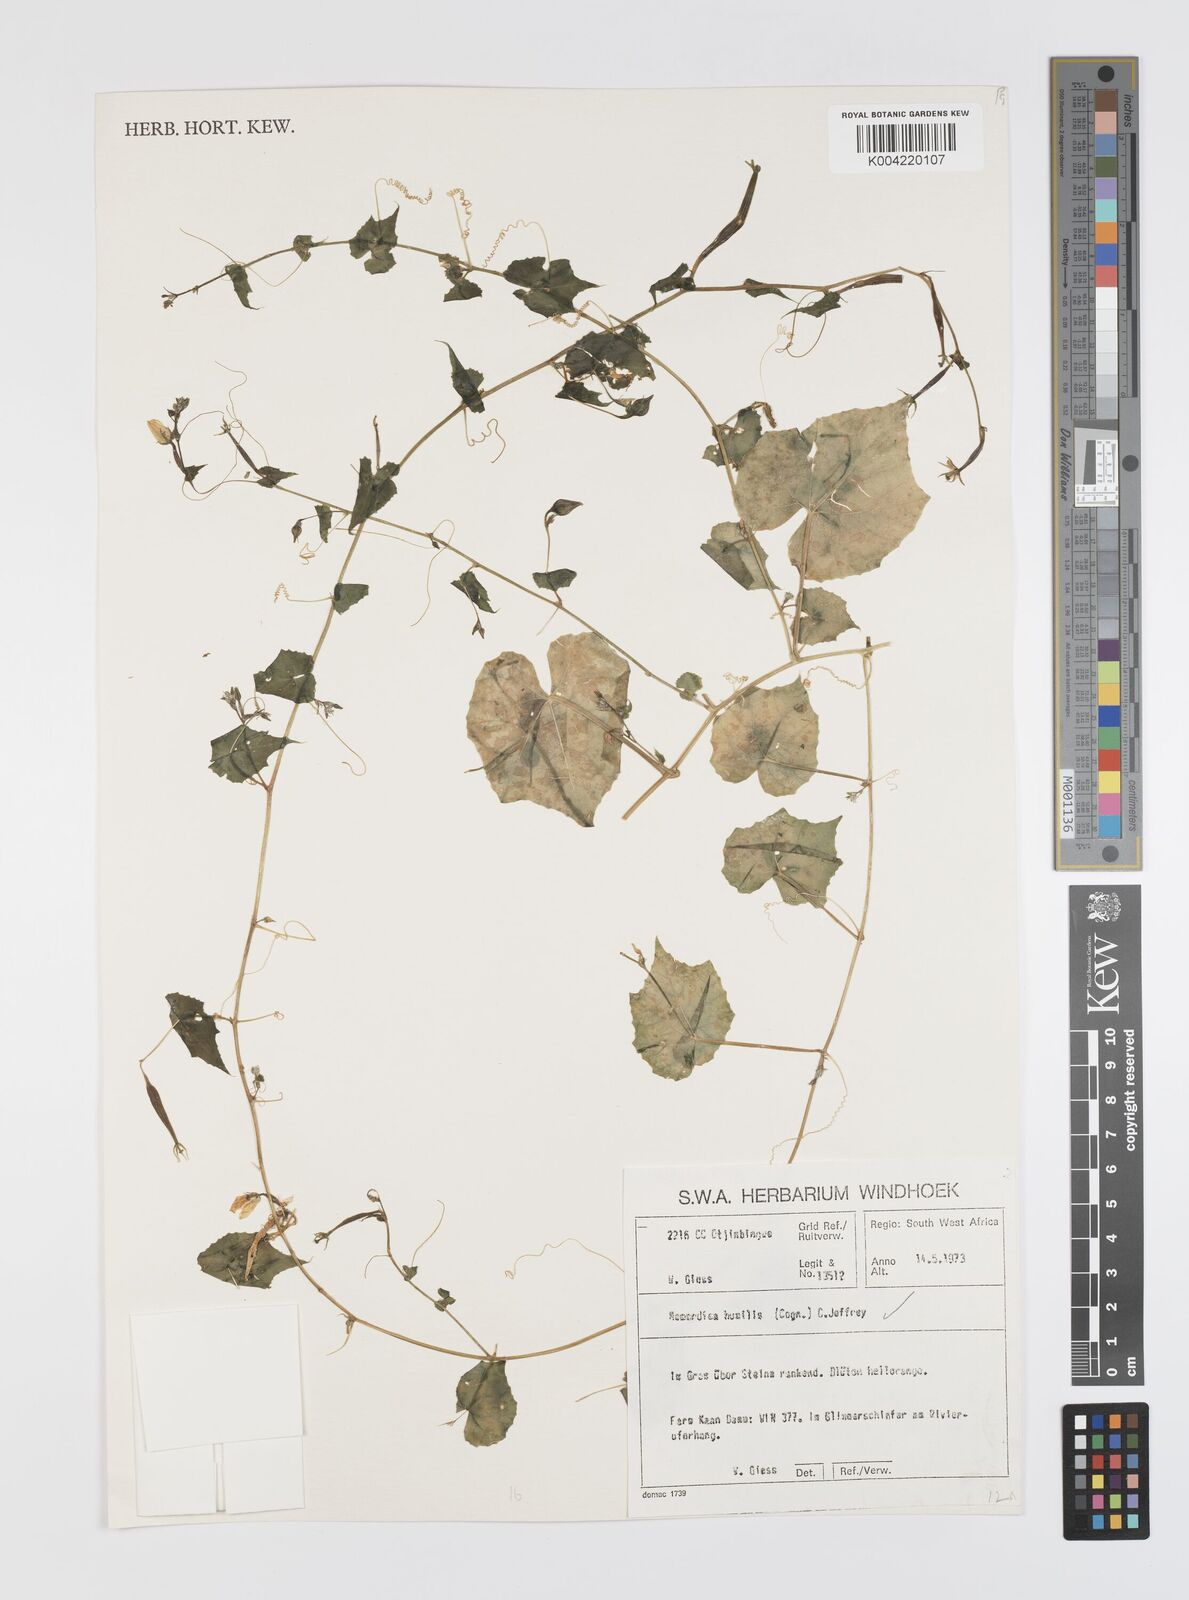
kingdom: Plantae
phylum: Tracheophyta
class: Magnoliopsida
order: Cucurbitales
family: Cucurbitaceae
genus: Momordica
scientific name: Momordica
